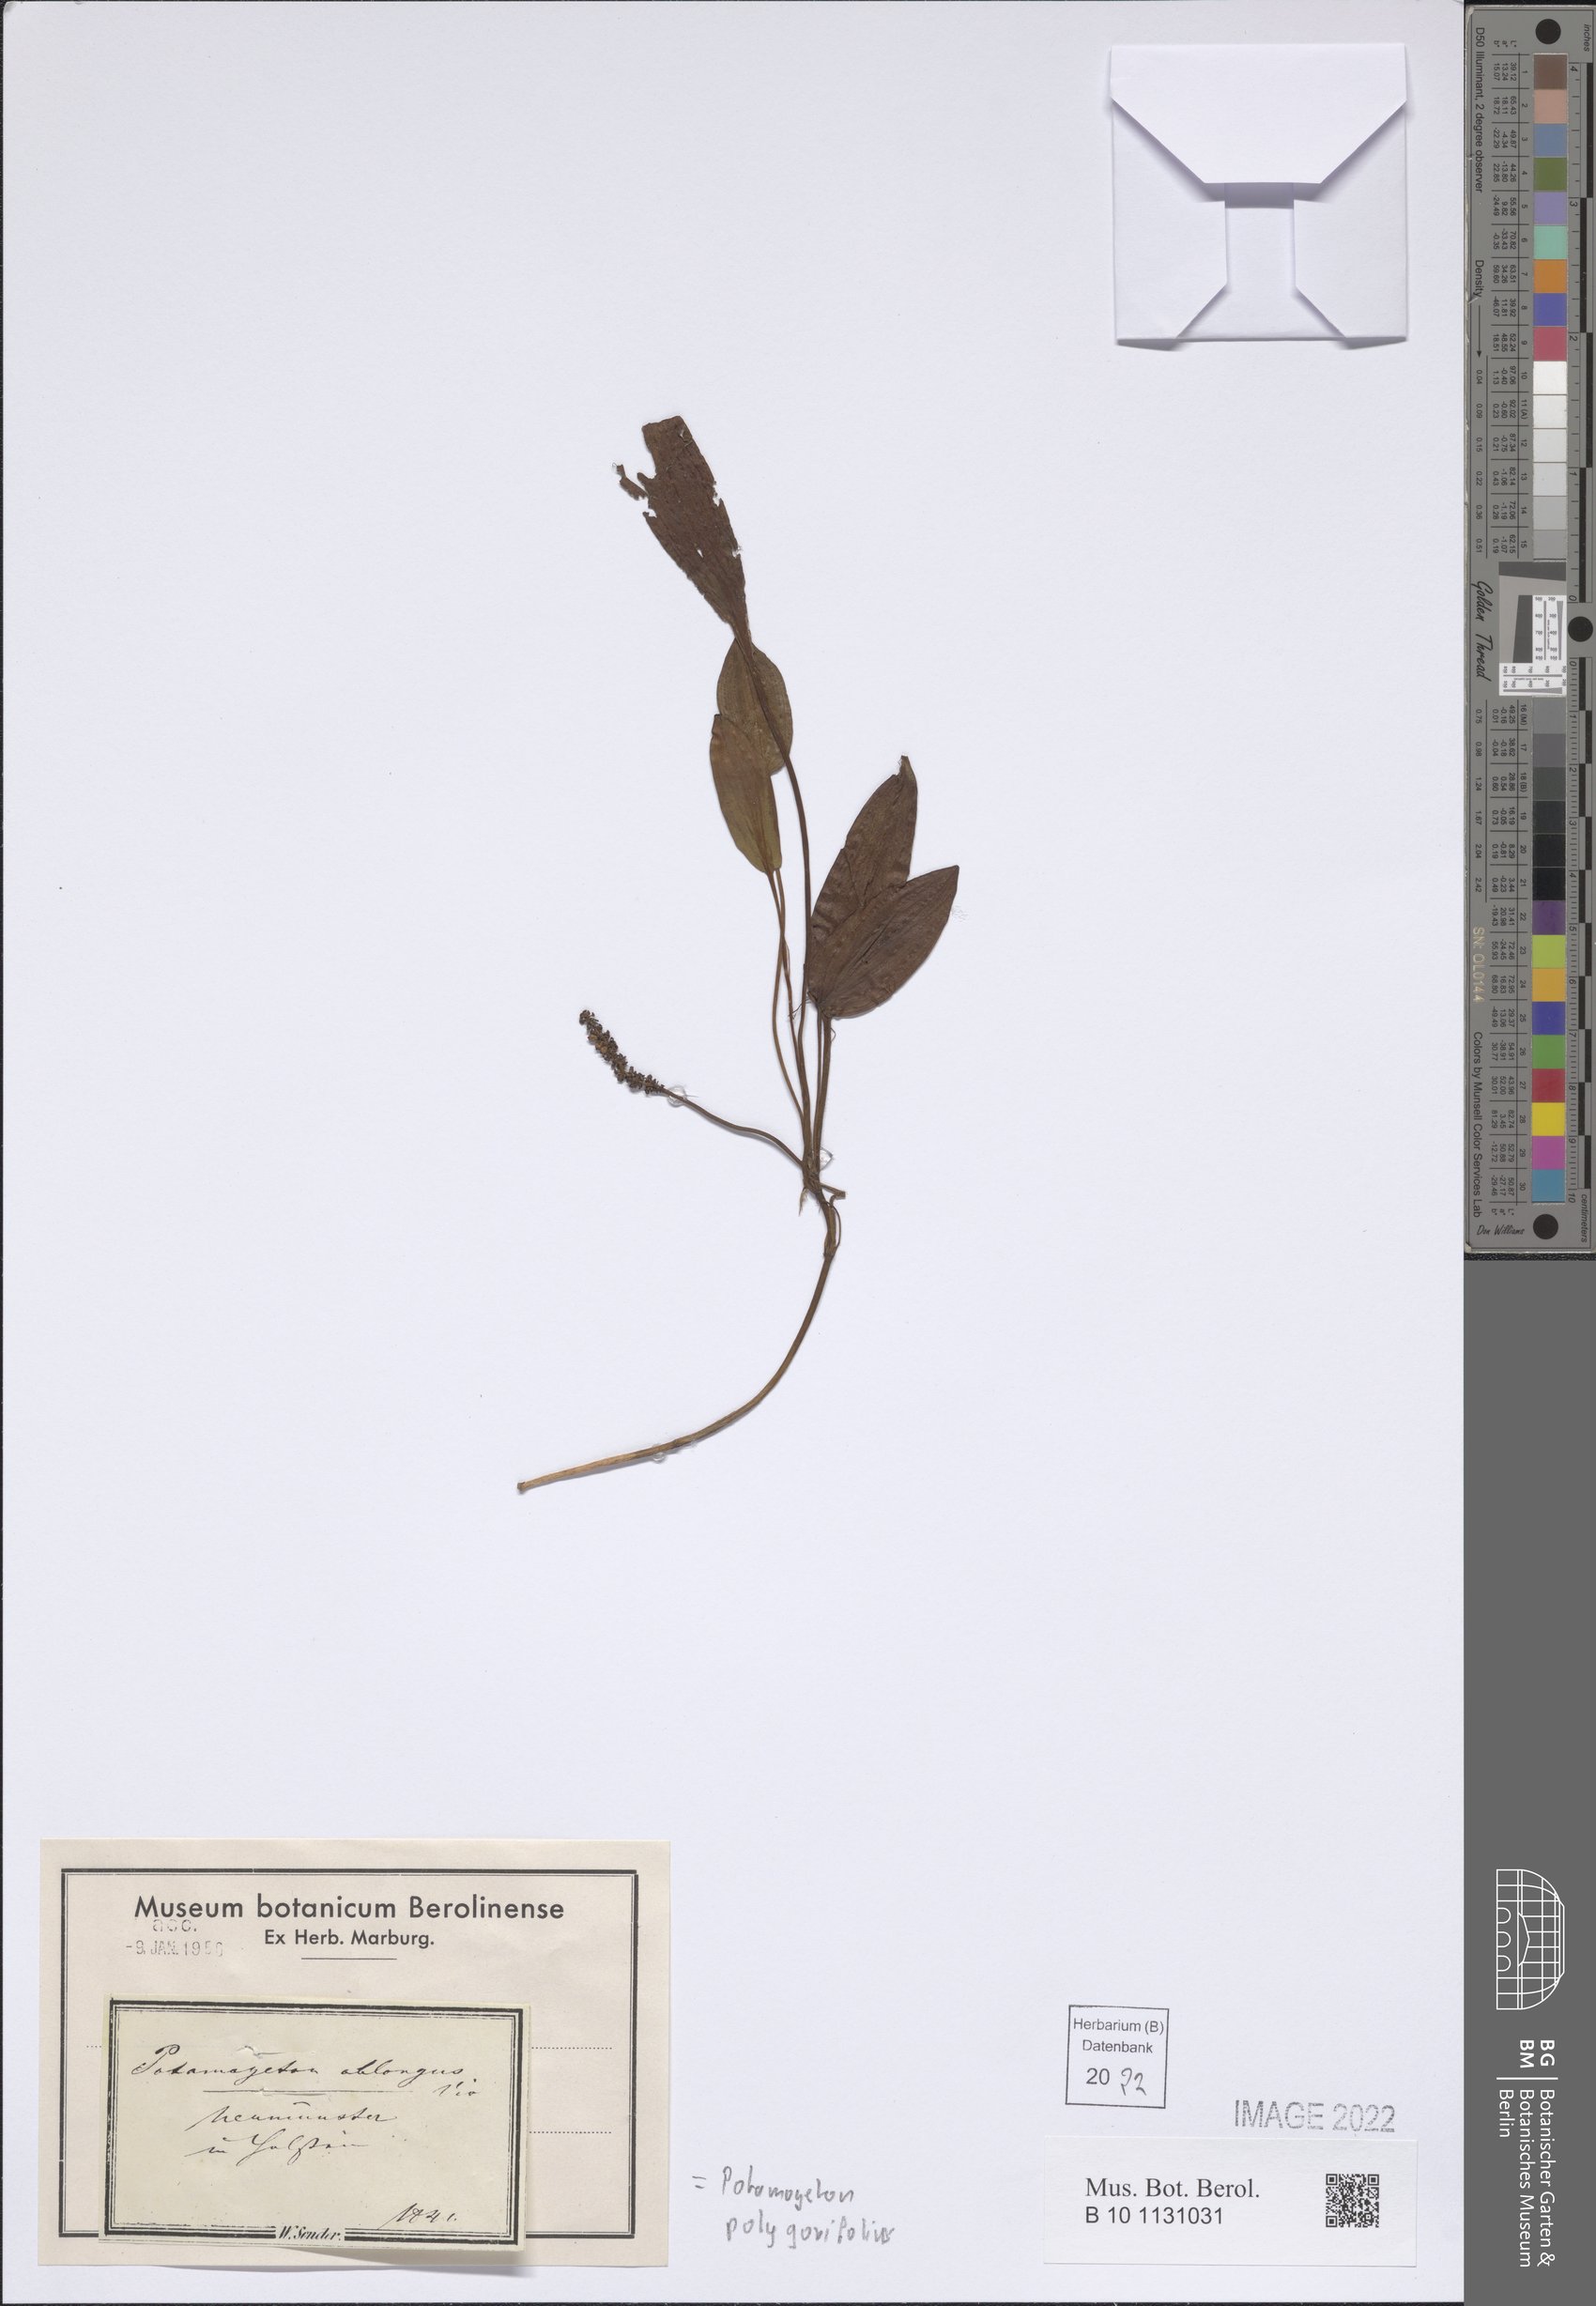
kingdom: Plantae
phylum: Tracheophyta
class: Liliopsida
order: Alismatales
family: Potamogetonaceae
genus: Potamogeton
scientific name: Potamogeton polygonifolius
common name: Bog pondweed
